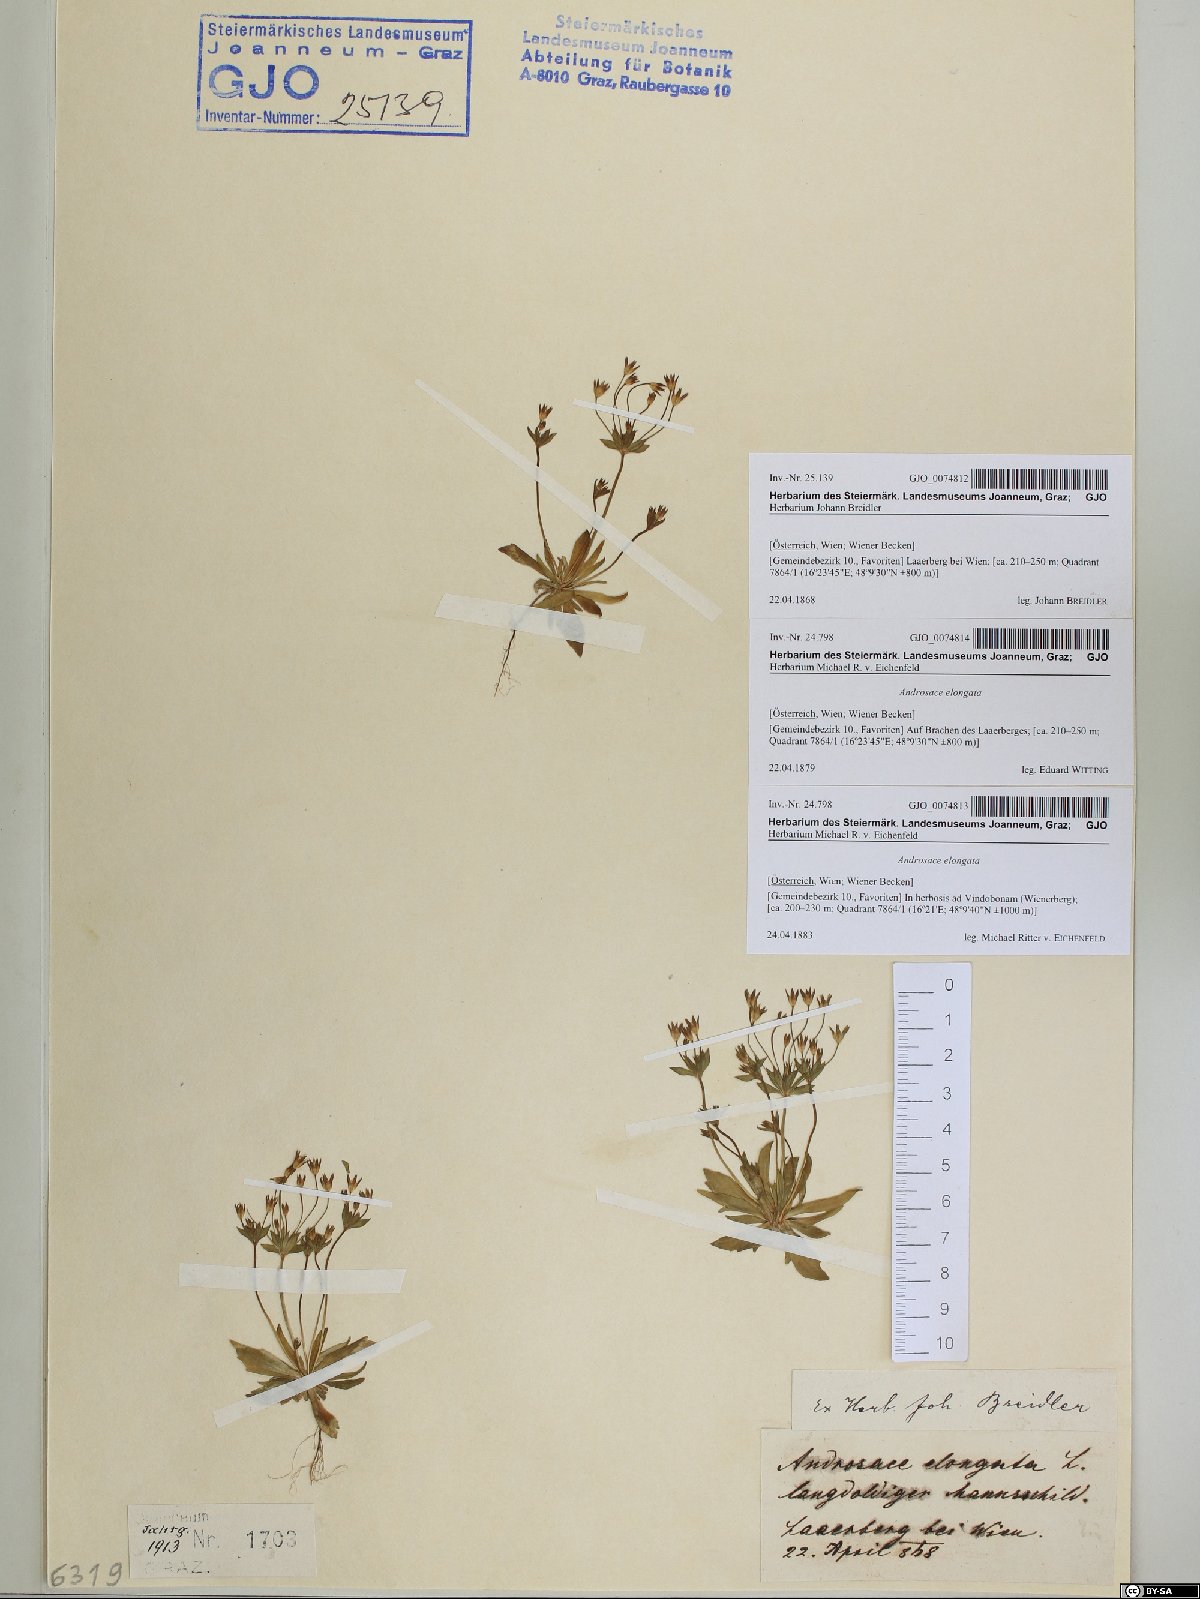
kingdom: Plantae
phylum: Tracheophyta
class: Magnoliopsida
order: Ericales
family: Primulaceae
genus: Androsace
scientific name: Androsace elongata
